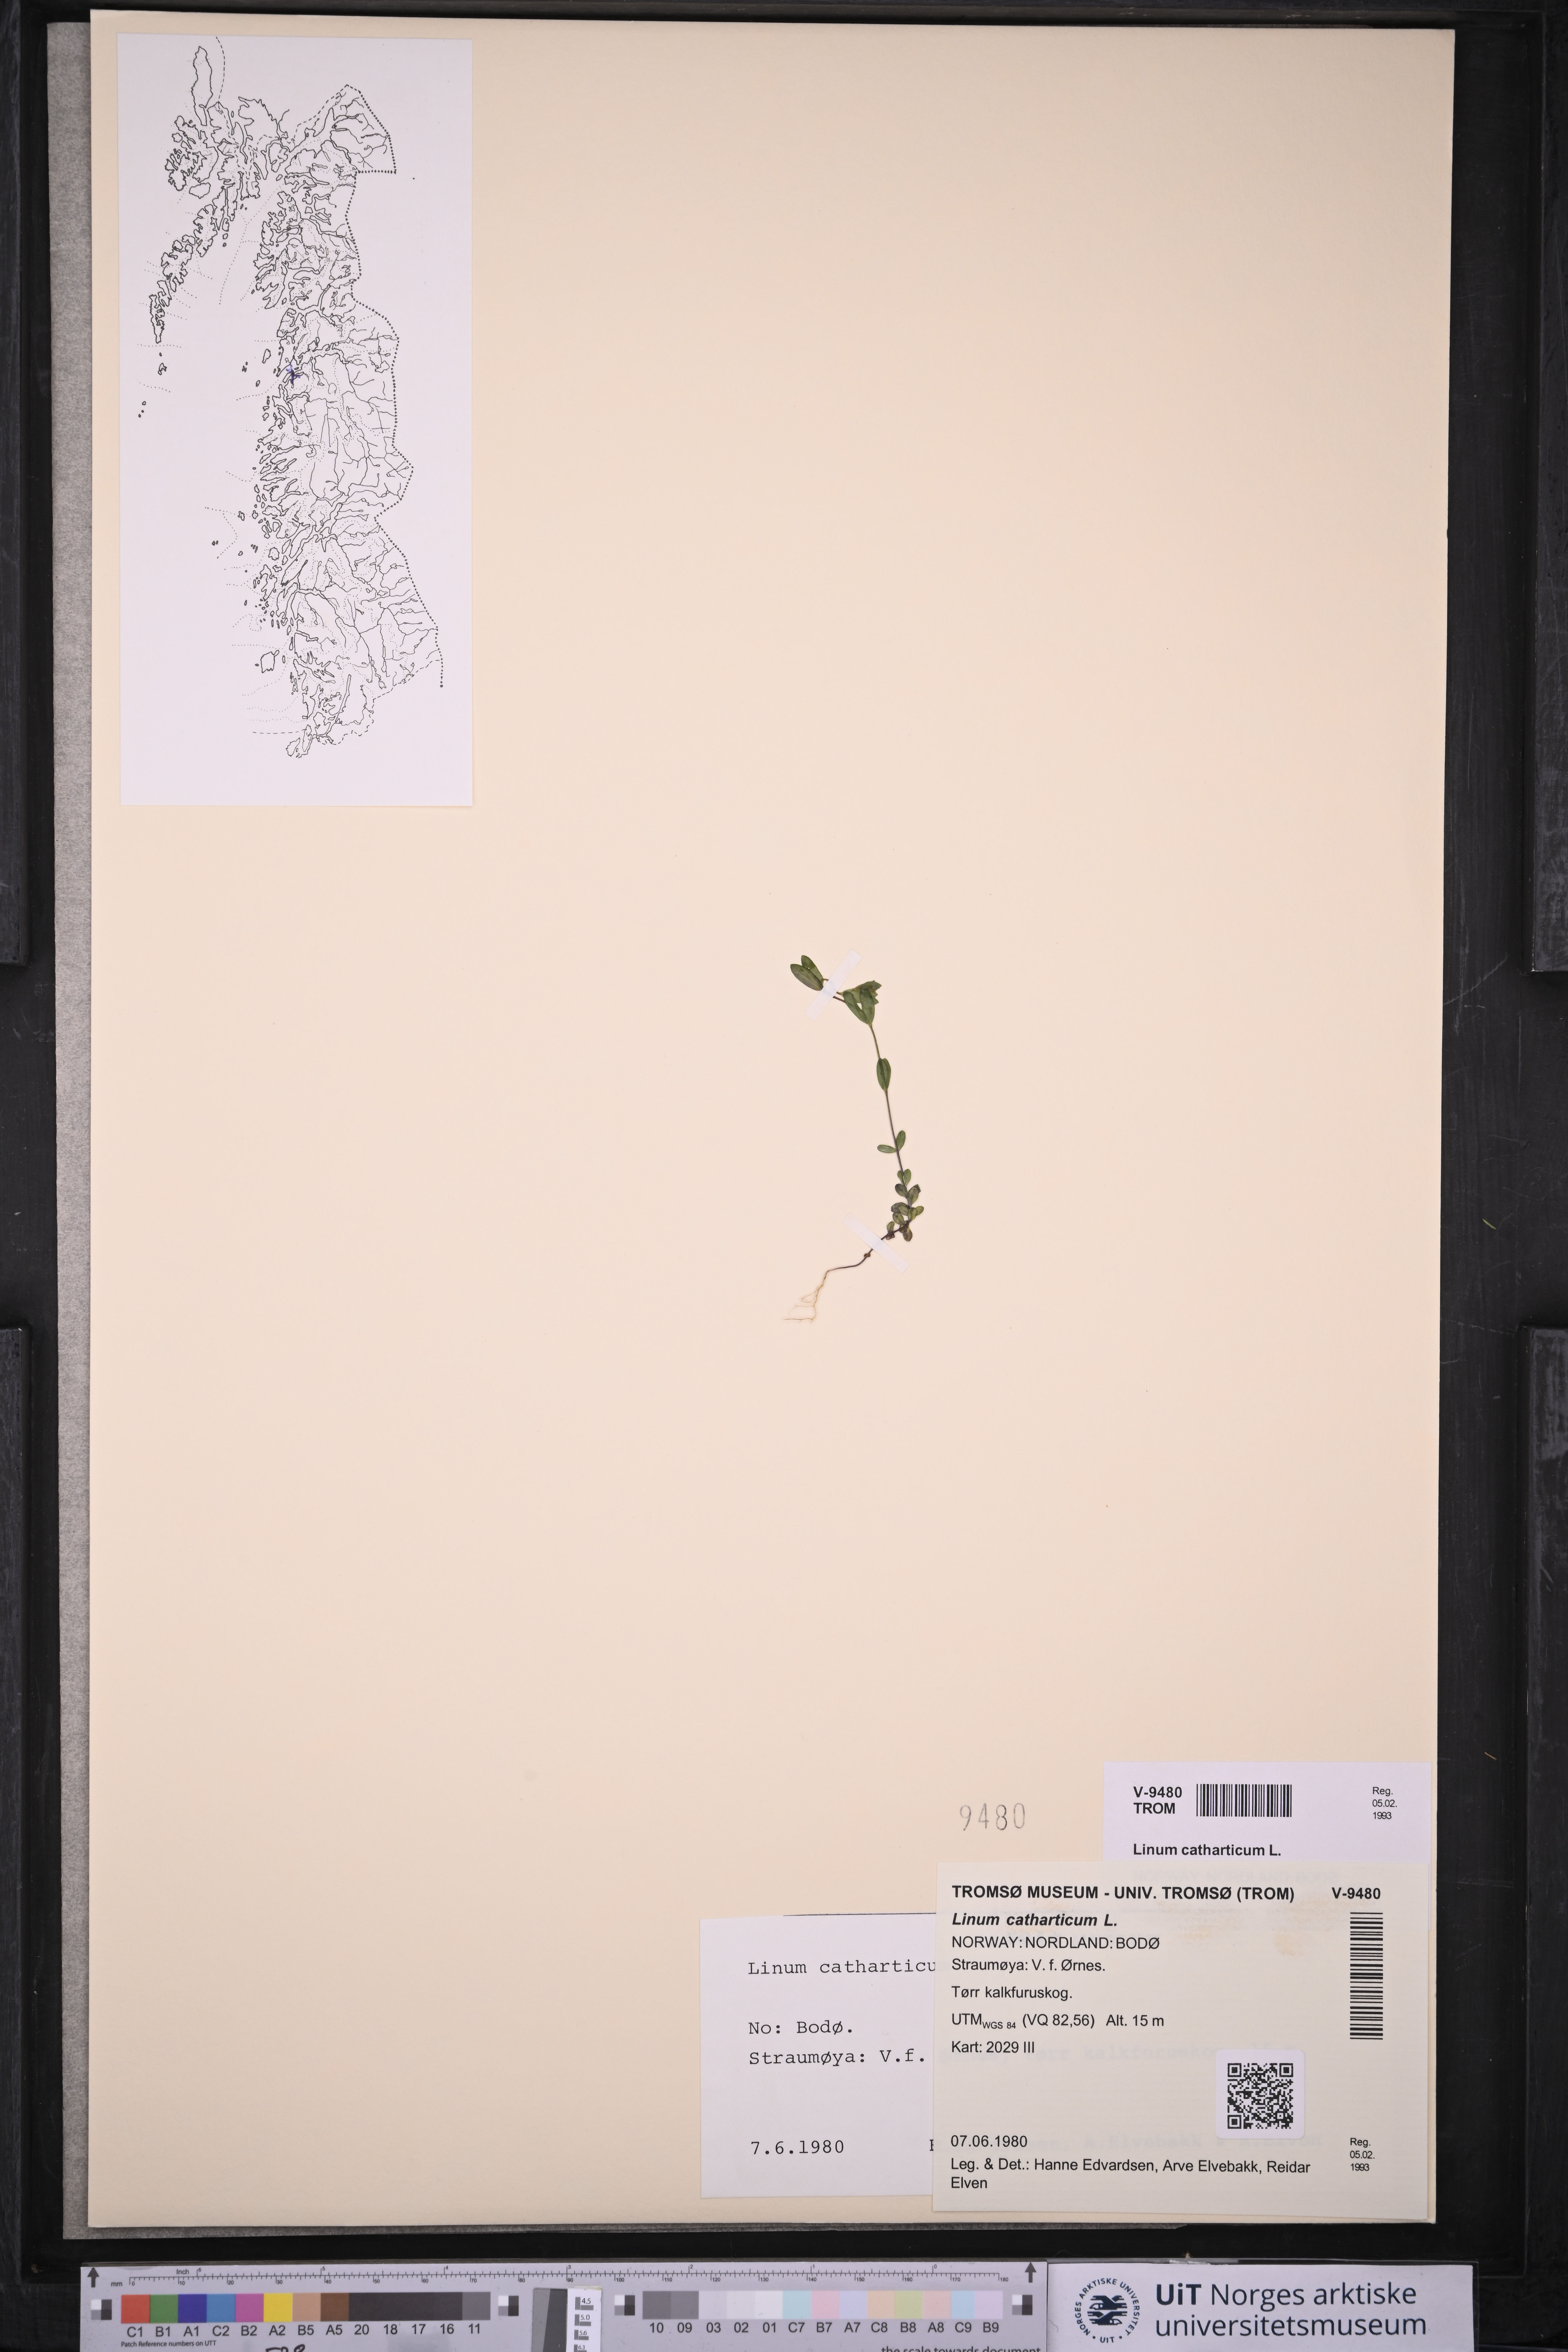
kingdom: Plantae
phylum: Tracheophyta
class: Magnoliopsida
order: Malpighiales
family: Linaceae
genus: Linum
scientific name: Linum catharticum
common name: Fairy flax
